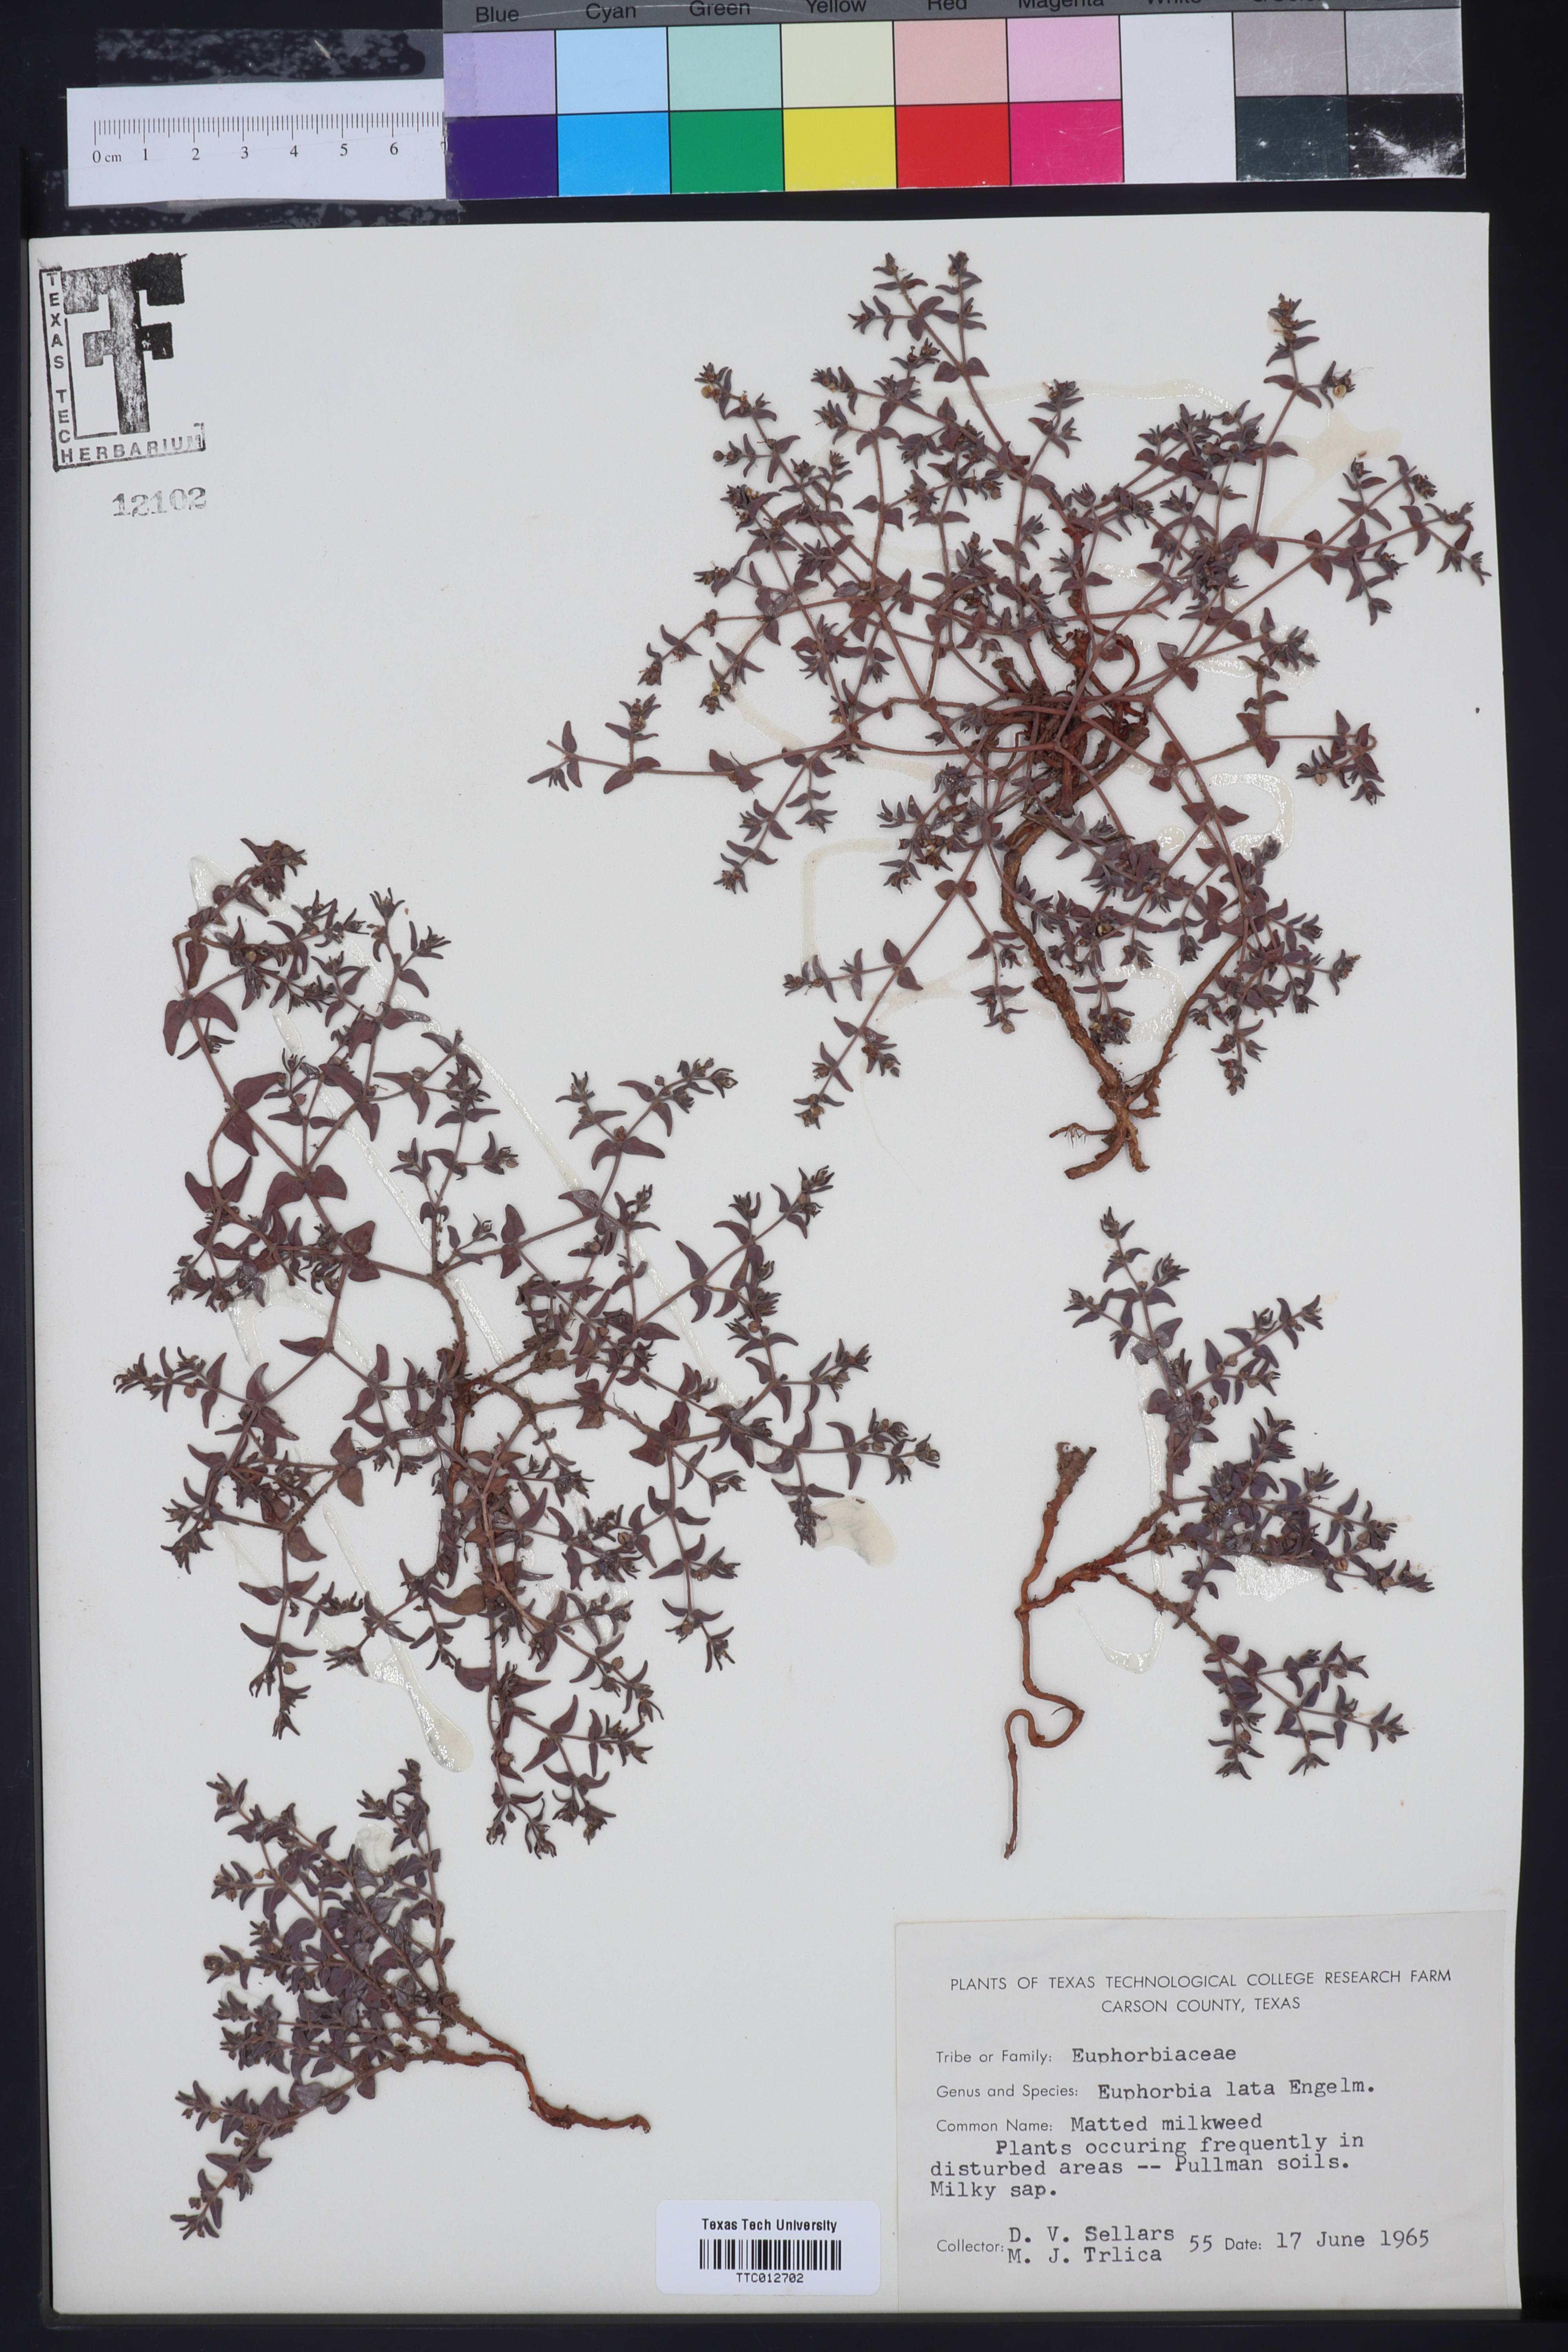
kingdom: Plantae
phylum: Tracheophyta
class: Magnoliopsida
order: Malpighiales
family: Euphorbiaceae
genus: Euphorbia
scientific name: Euphorbia lata
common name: Hoary euphorbia
